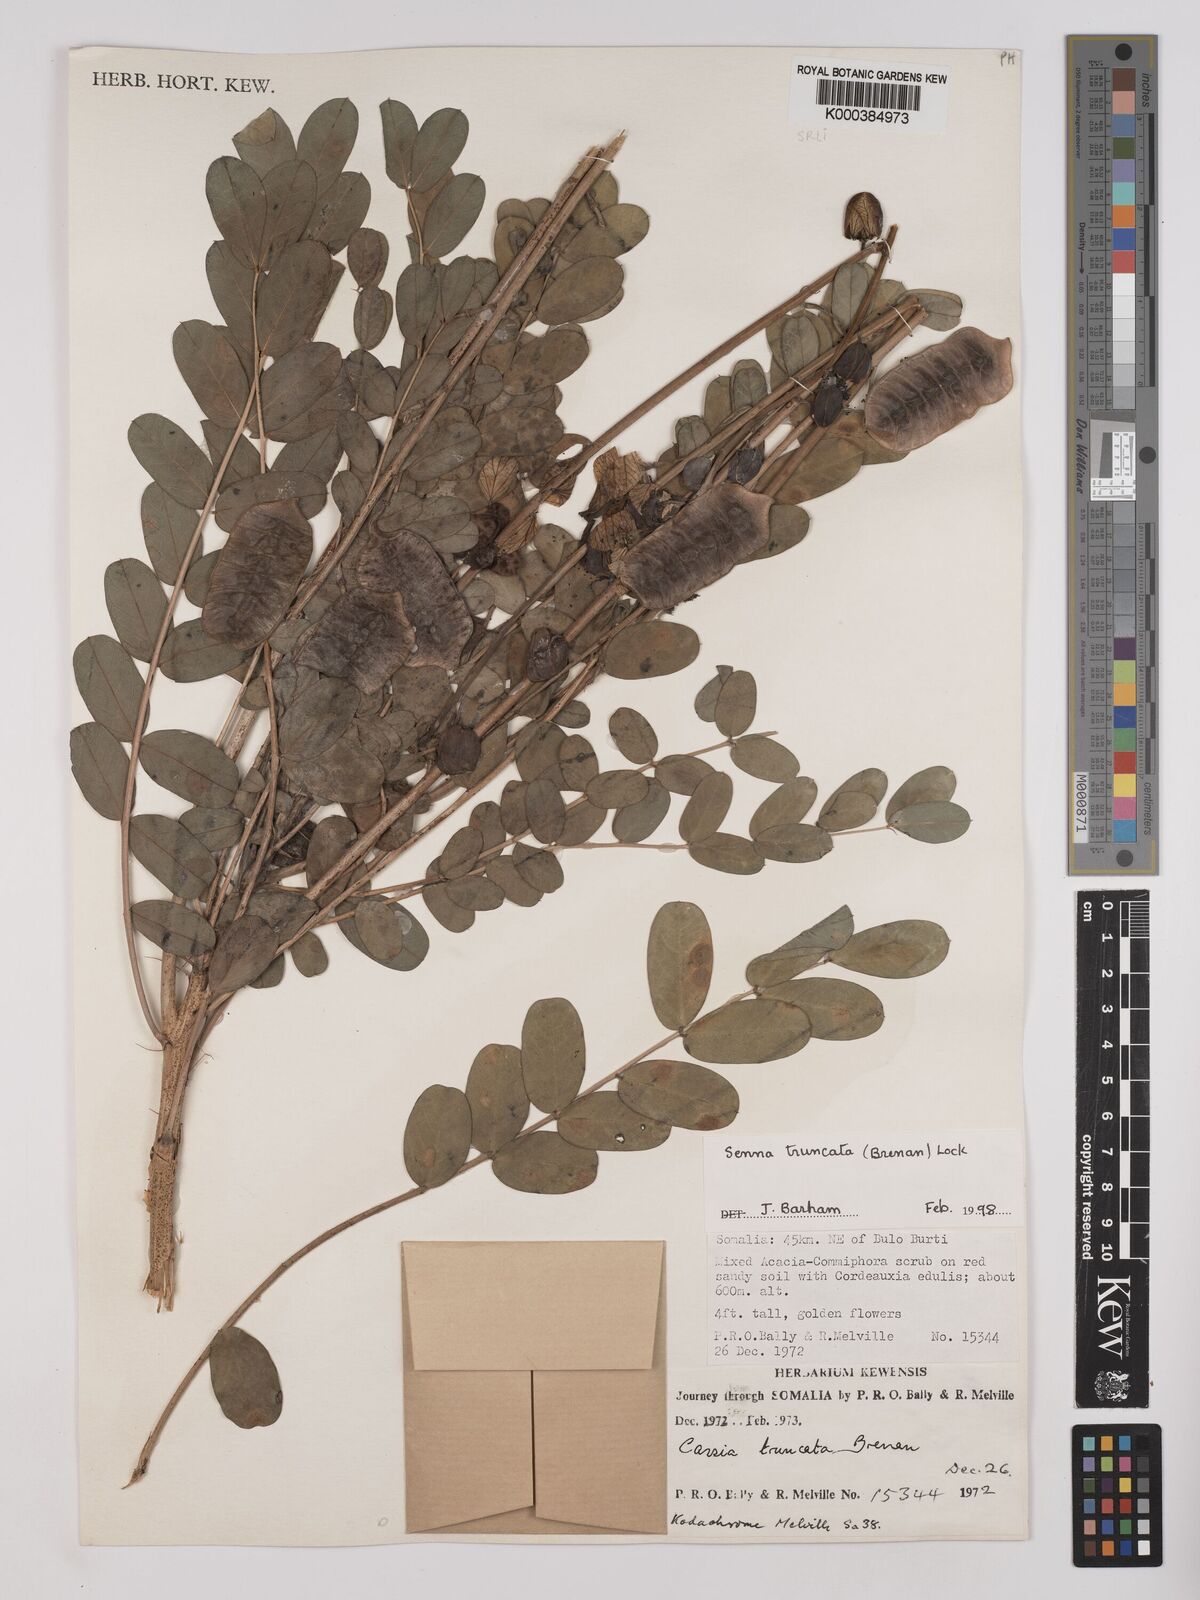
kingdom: Plantae
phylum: Tracheophyta
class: Magnoliopsida
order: Fabales
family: Fabaceae
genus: Senna
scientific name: Senna truncata
